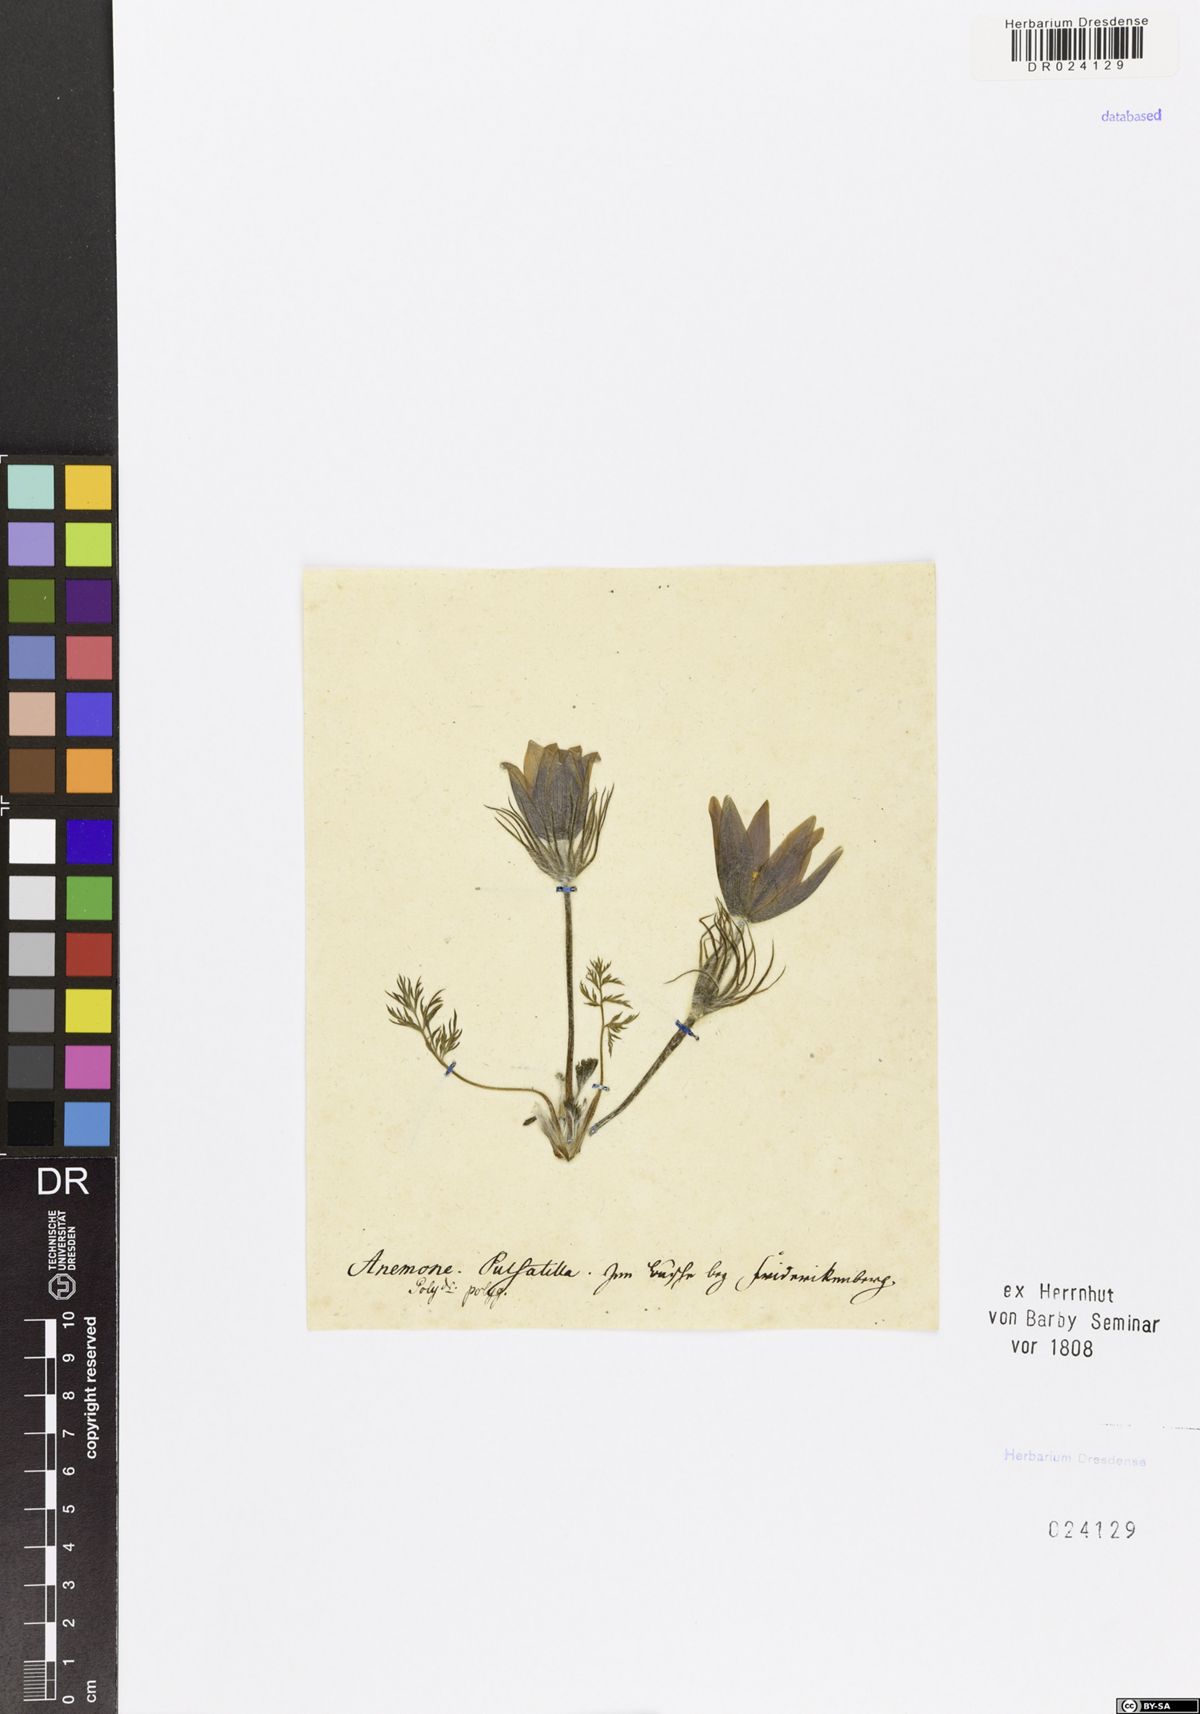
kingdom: Plantae
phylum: Tracheophyta
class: Magnoliopsida
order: Ranunculales
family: Ranunculaceae
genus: Pulsatilla
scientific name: Pulsatilla vulgaris
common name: Pasqueflower
